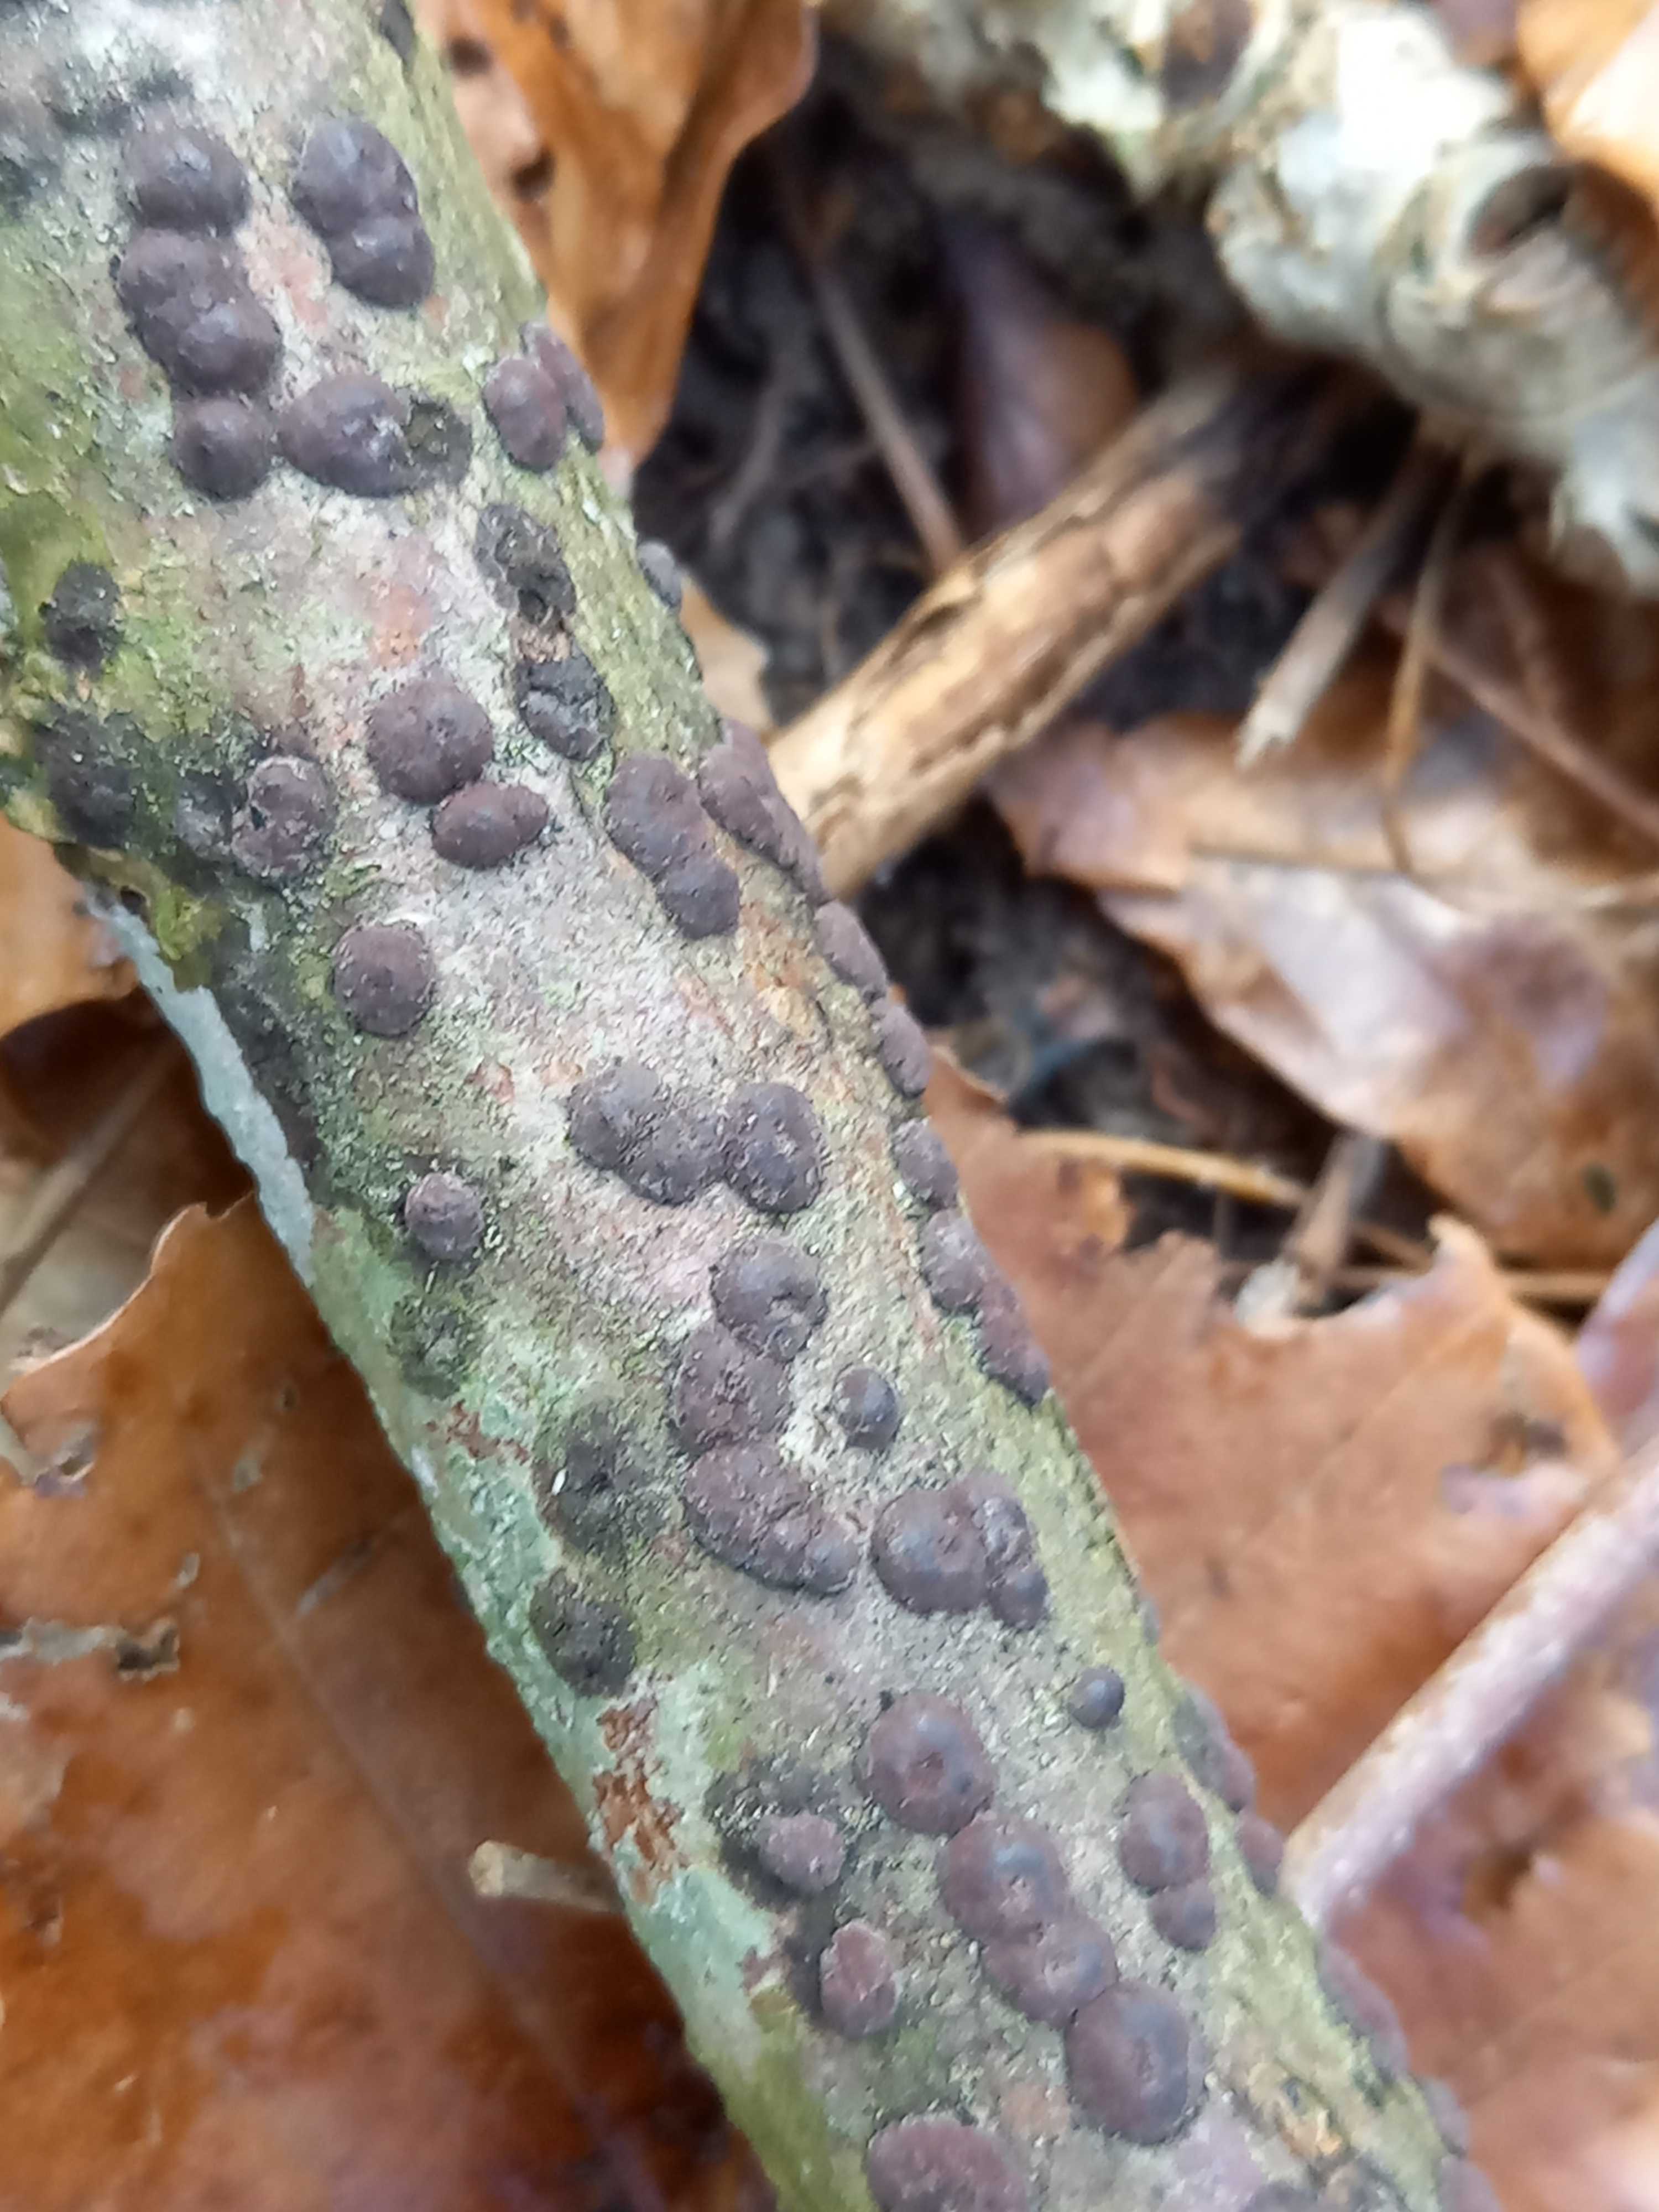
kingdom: Fungi
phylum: Ascomycota
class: Sordariomycetes
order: Xylariales
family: Hypoxylaceae
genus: Hypoxylon
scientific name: Hypoxylon fuscum
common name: kegleformet kulbær
